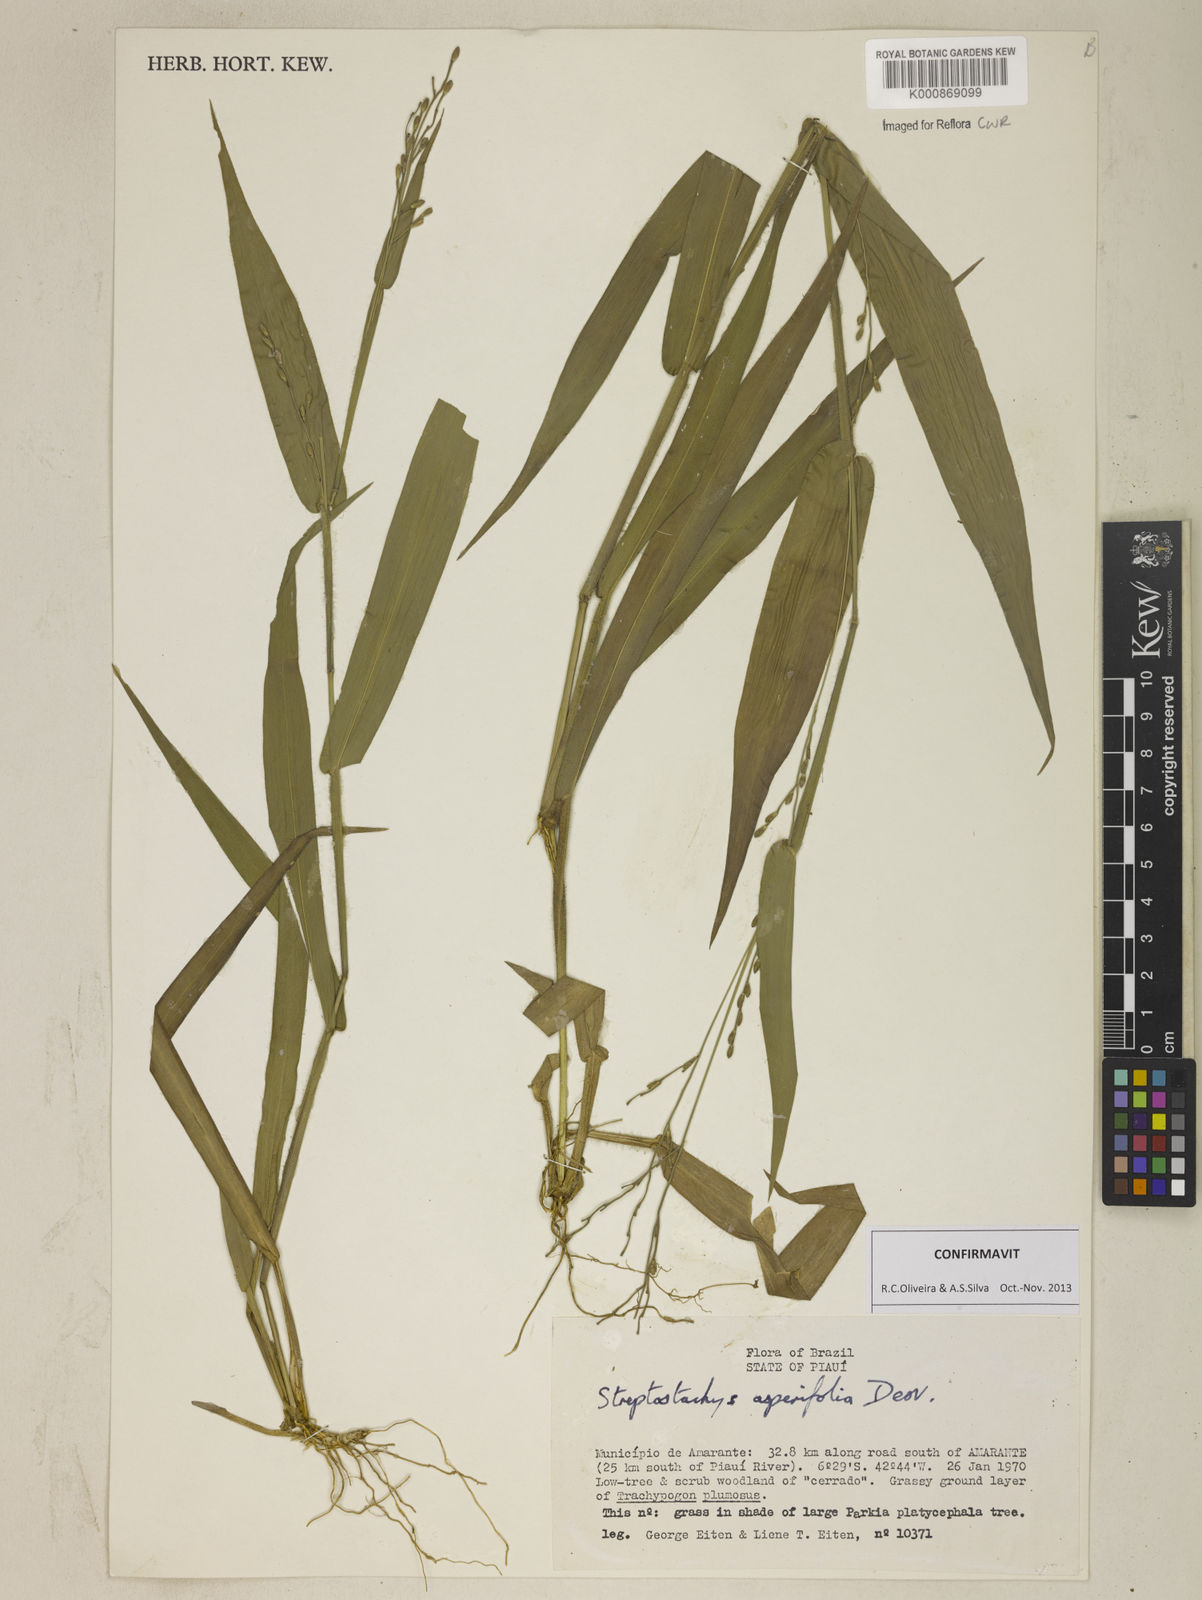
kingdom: Plantae
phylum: Tracheophyta
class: Liliopsida
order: Poales
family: Poaceae
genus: Streptostachys
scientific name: Streptostachys asperifolia
